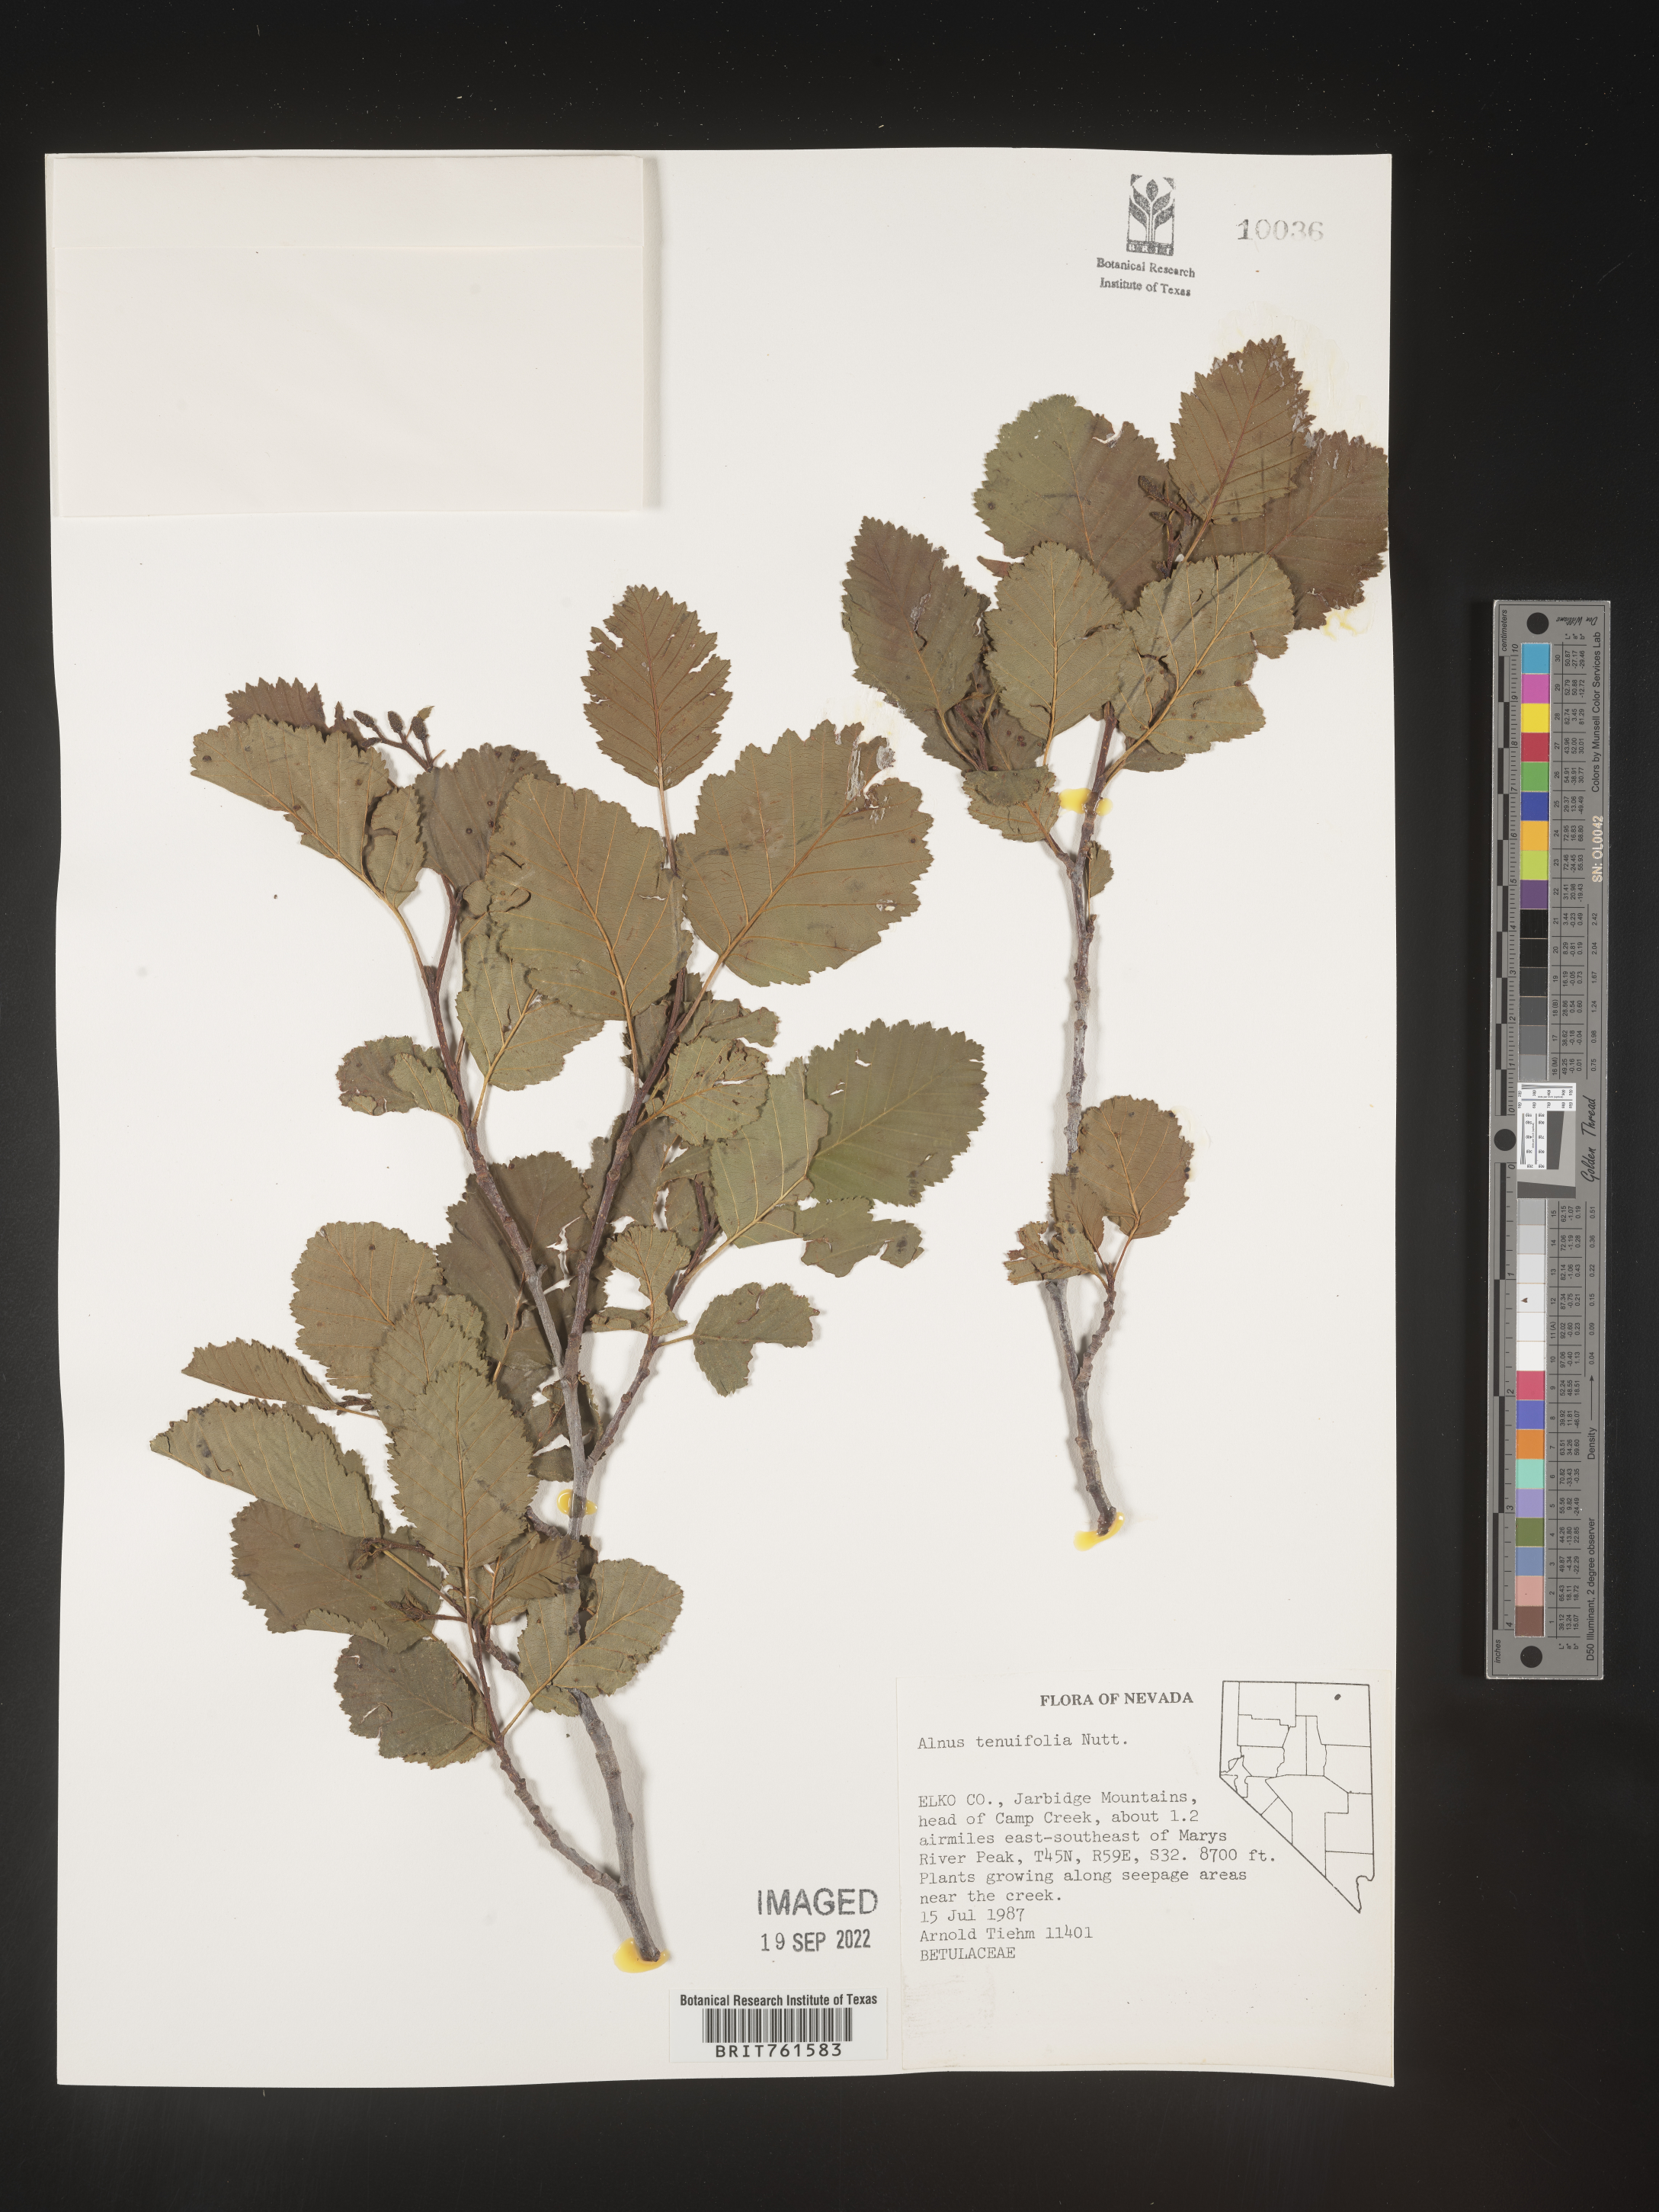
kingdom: Plantae
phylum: Tracheophyta
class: Magnoliopsida
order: Fagales
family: Betulaceae
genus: Alnus
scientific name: Alnus incana
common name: Grey alder
